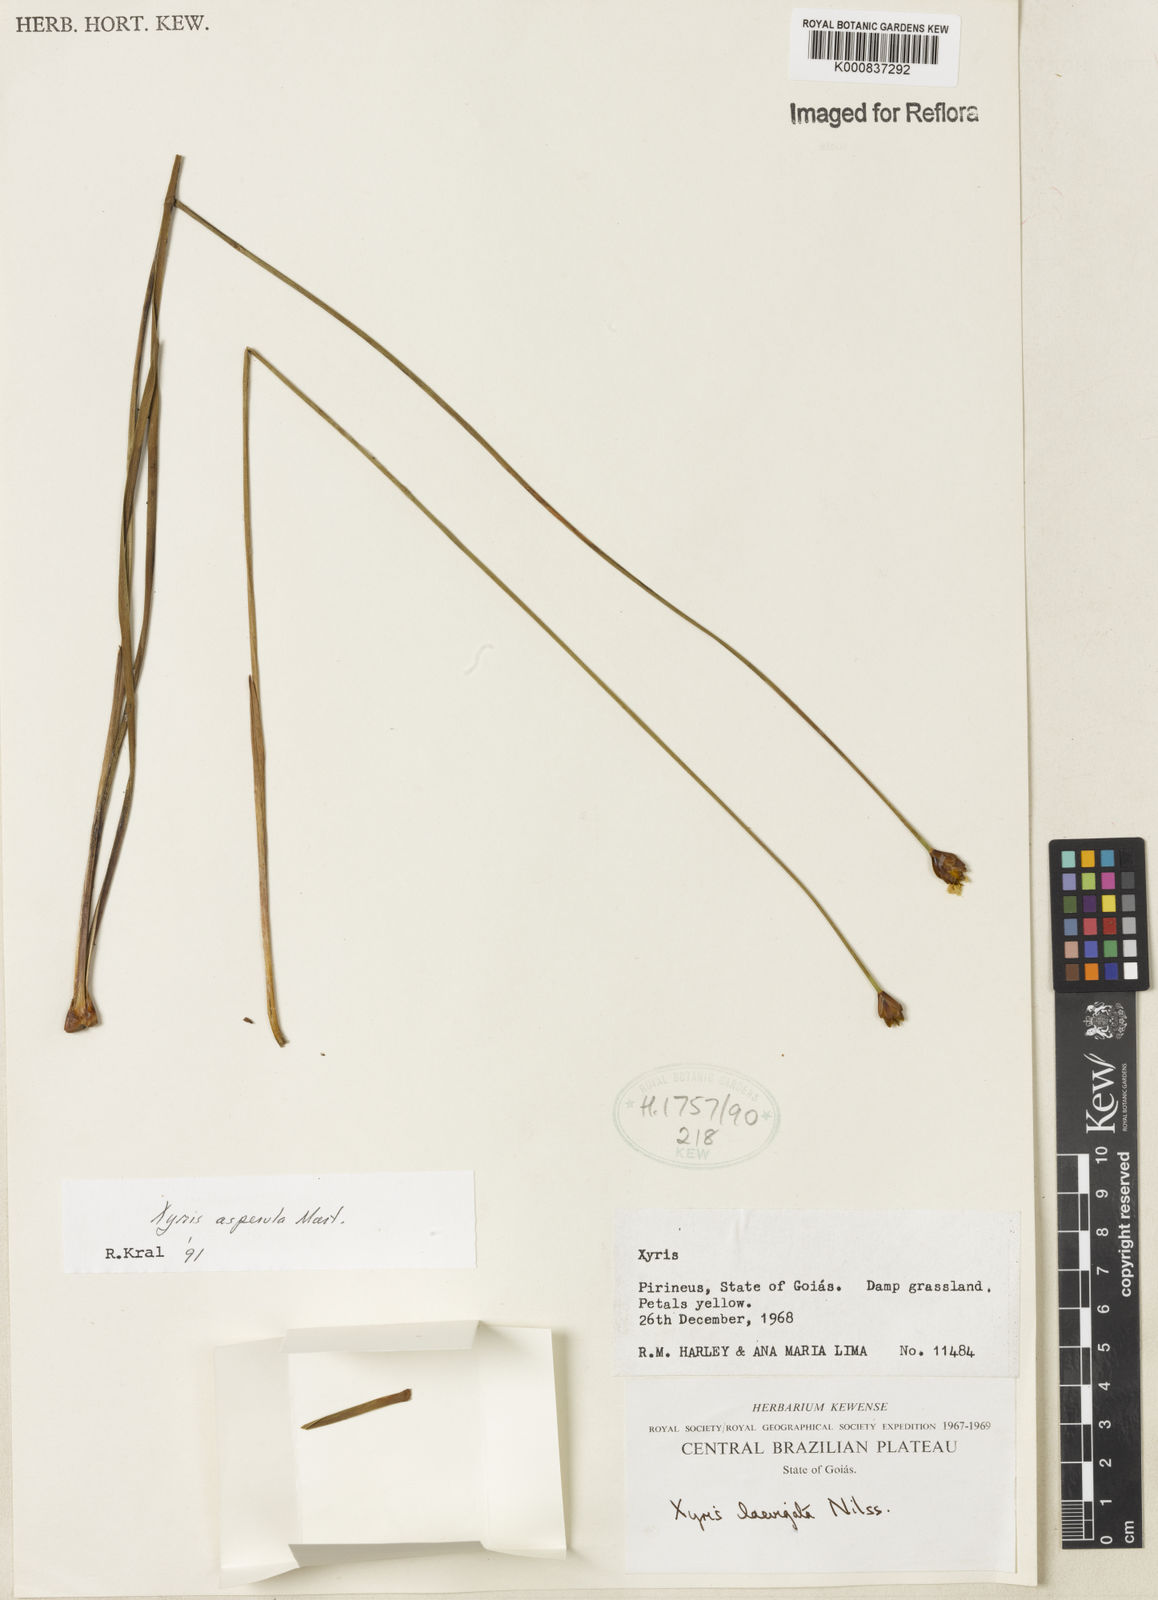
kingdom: Plantae
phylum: Tracheophyta
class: Liliopsida
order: Poales
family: Xyridaceae
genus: Xyris
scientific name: Xyris asperula
